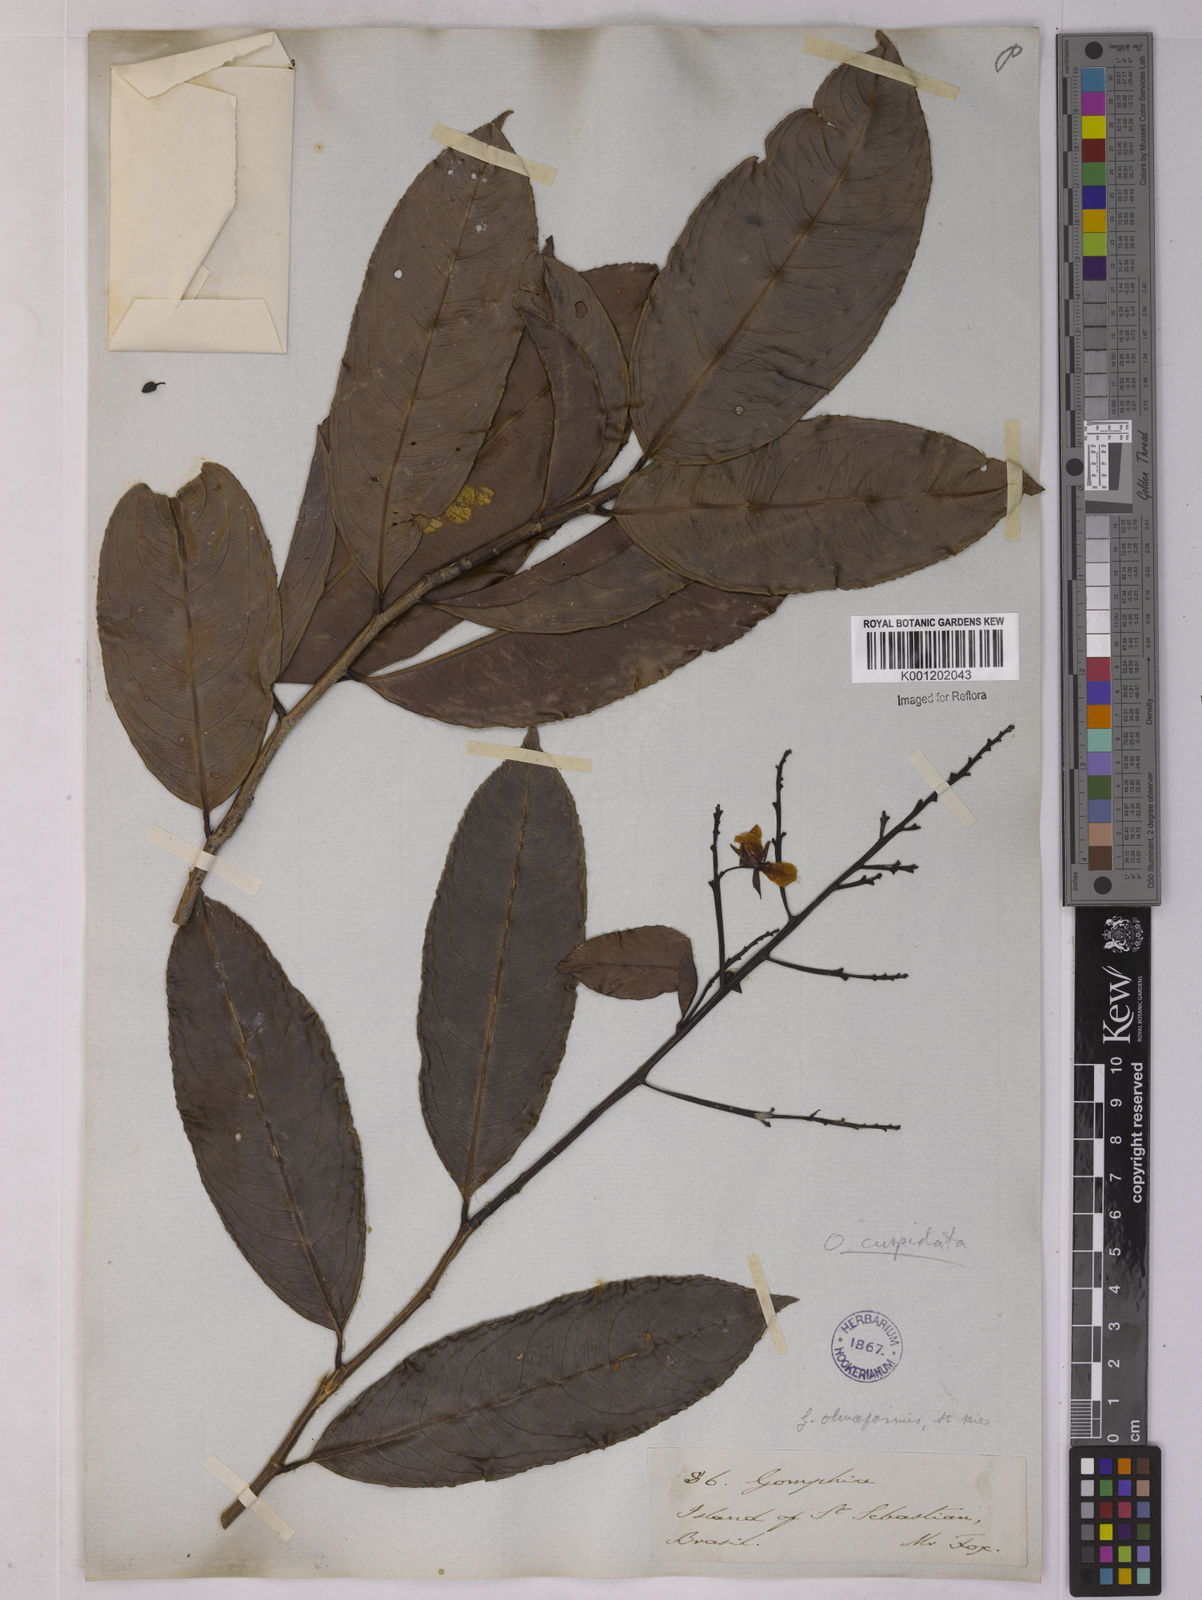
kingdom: Plantae
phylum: Tracheophyta
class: Magnoliopsida
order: Malpighiales
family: Ochnaceae
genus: Ouratea
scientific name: Ouratea cuspidata
